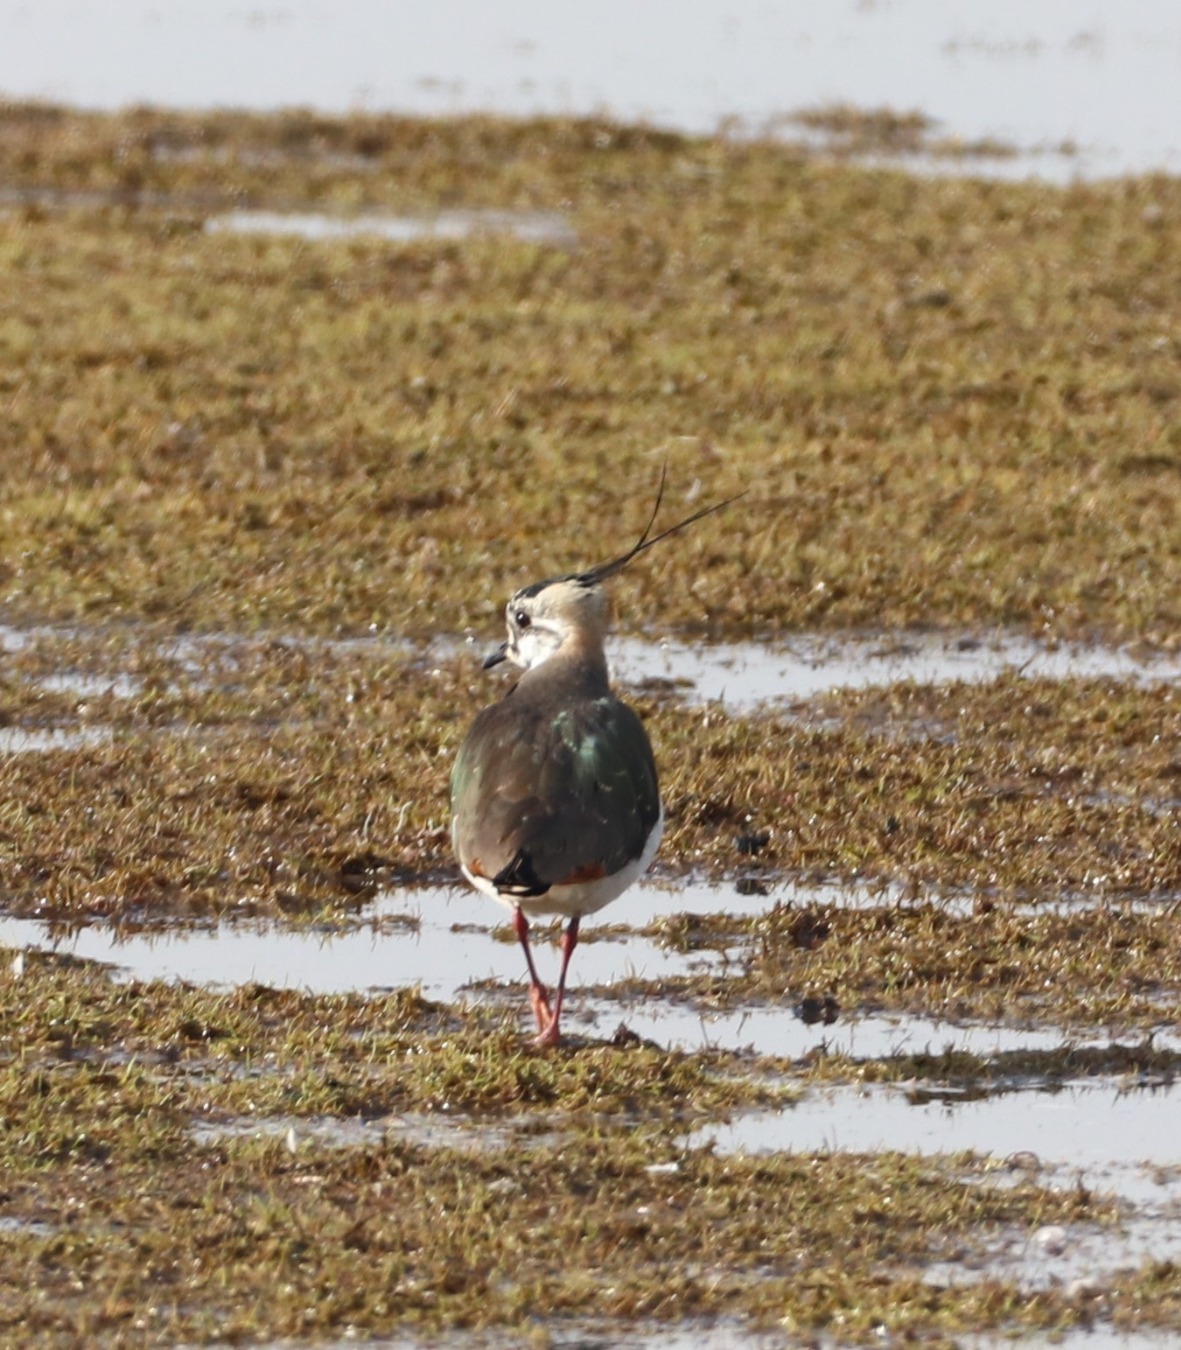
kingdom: Animalia
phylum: Chordata
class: Aves
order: Charadriiformes
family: Charadriidae
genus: Vanellus
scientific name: Vanellus vanellus
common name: Vibe
